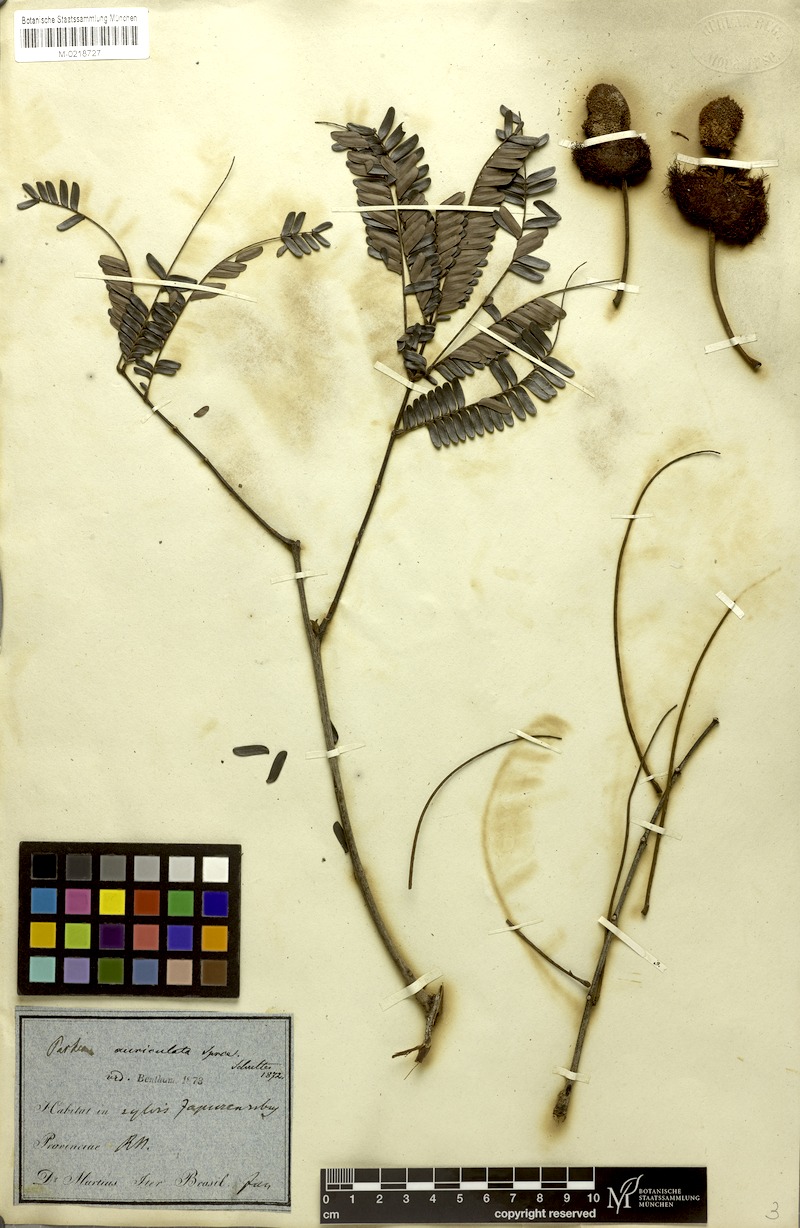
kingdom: Plantae
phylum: Tracheophyta
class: Magnoliopsida
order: Fabales
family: Fabaceae
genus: Parkia
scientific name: Parkia discolor
